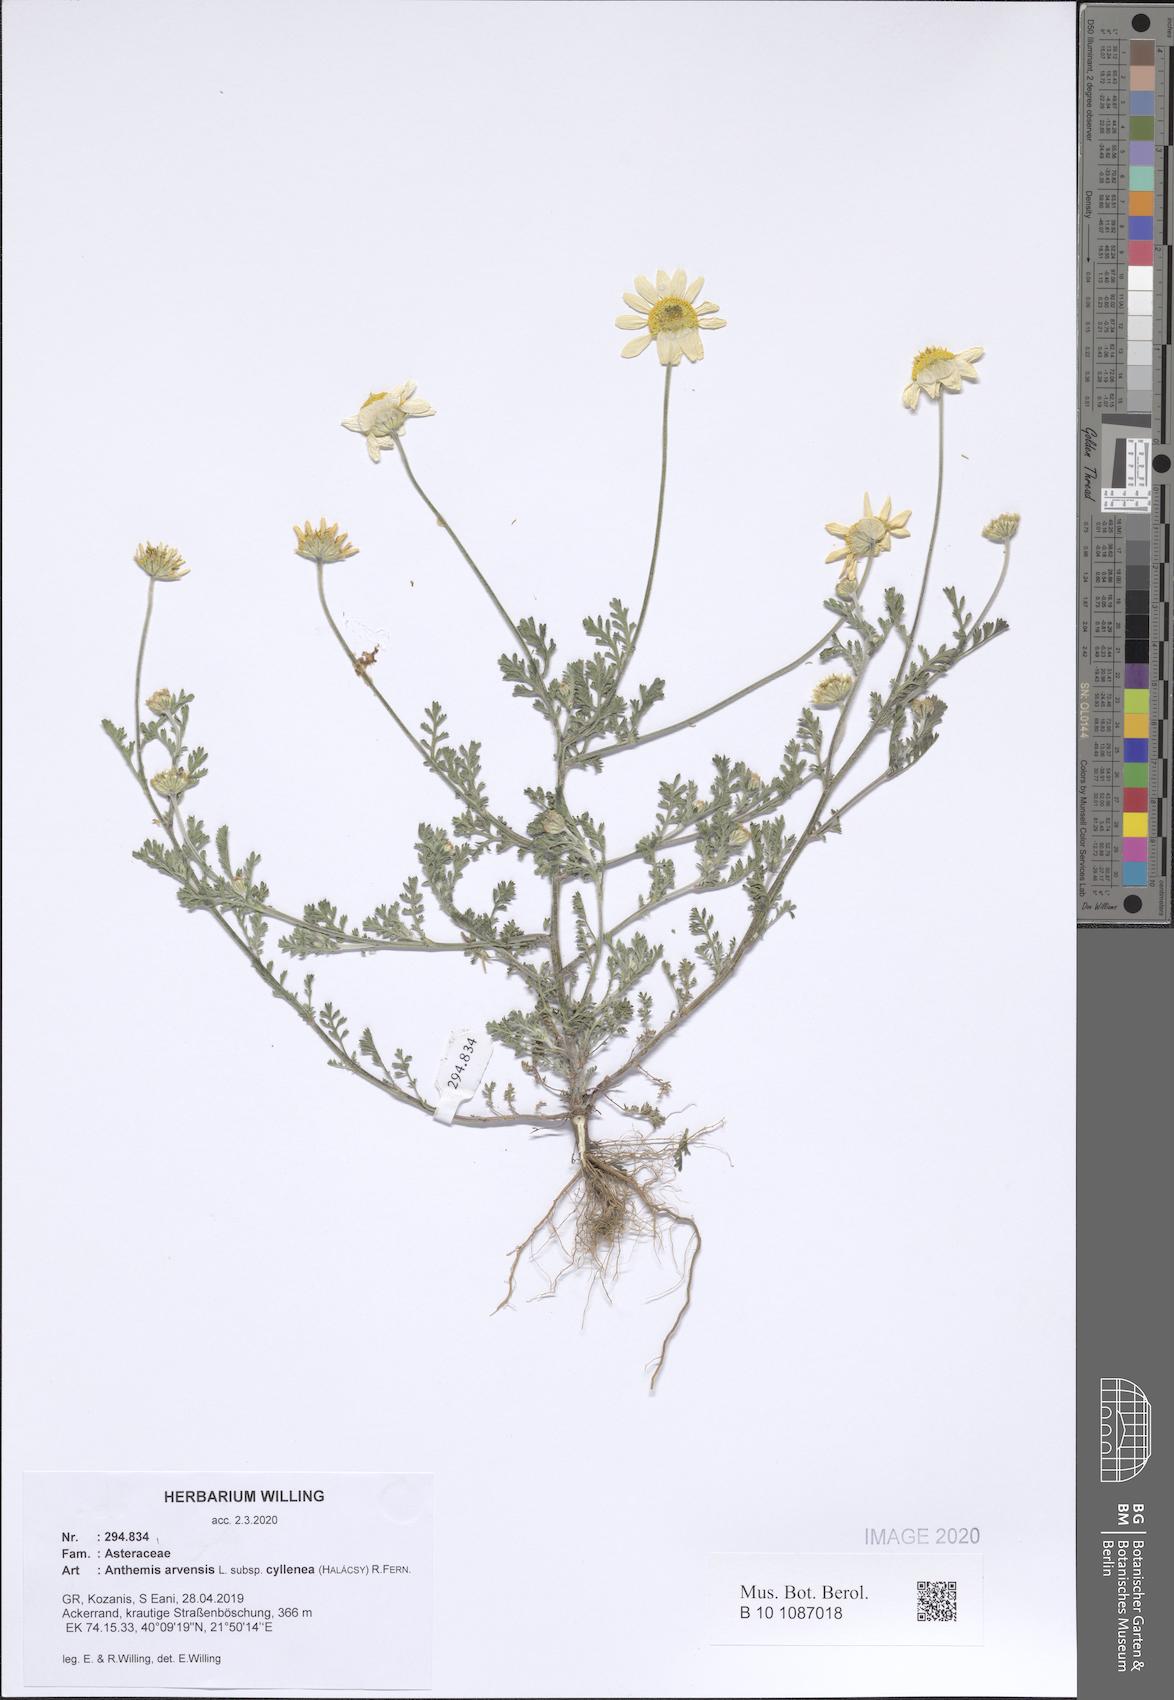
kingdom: Plantae
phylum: Tracheophyta
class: Magnoliopsida
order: Asterales
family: Asteraceae
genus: Anthemis
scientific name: Anthemis arvensis
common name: Corn chamomile
